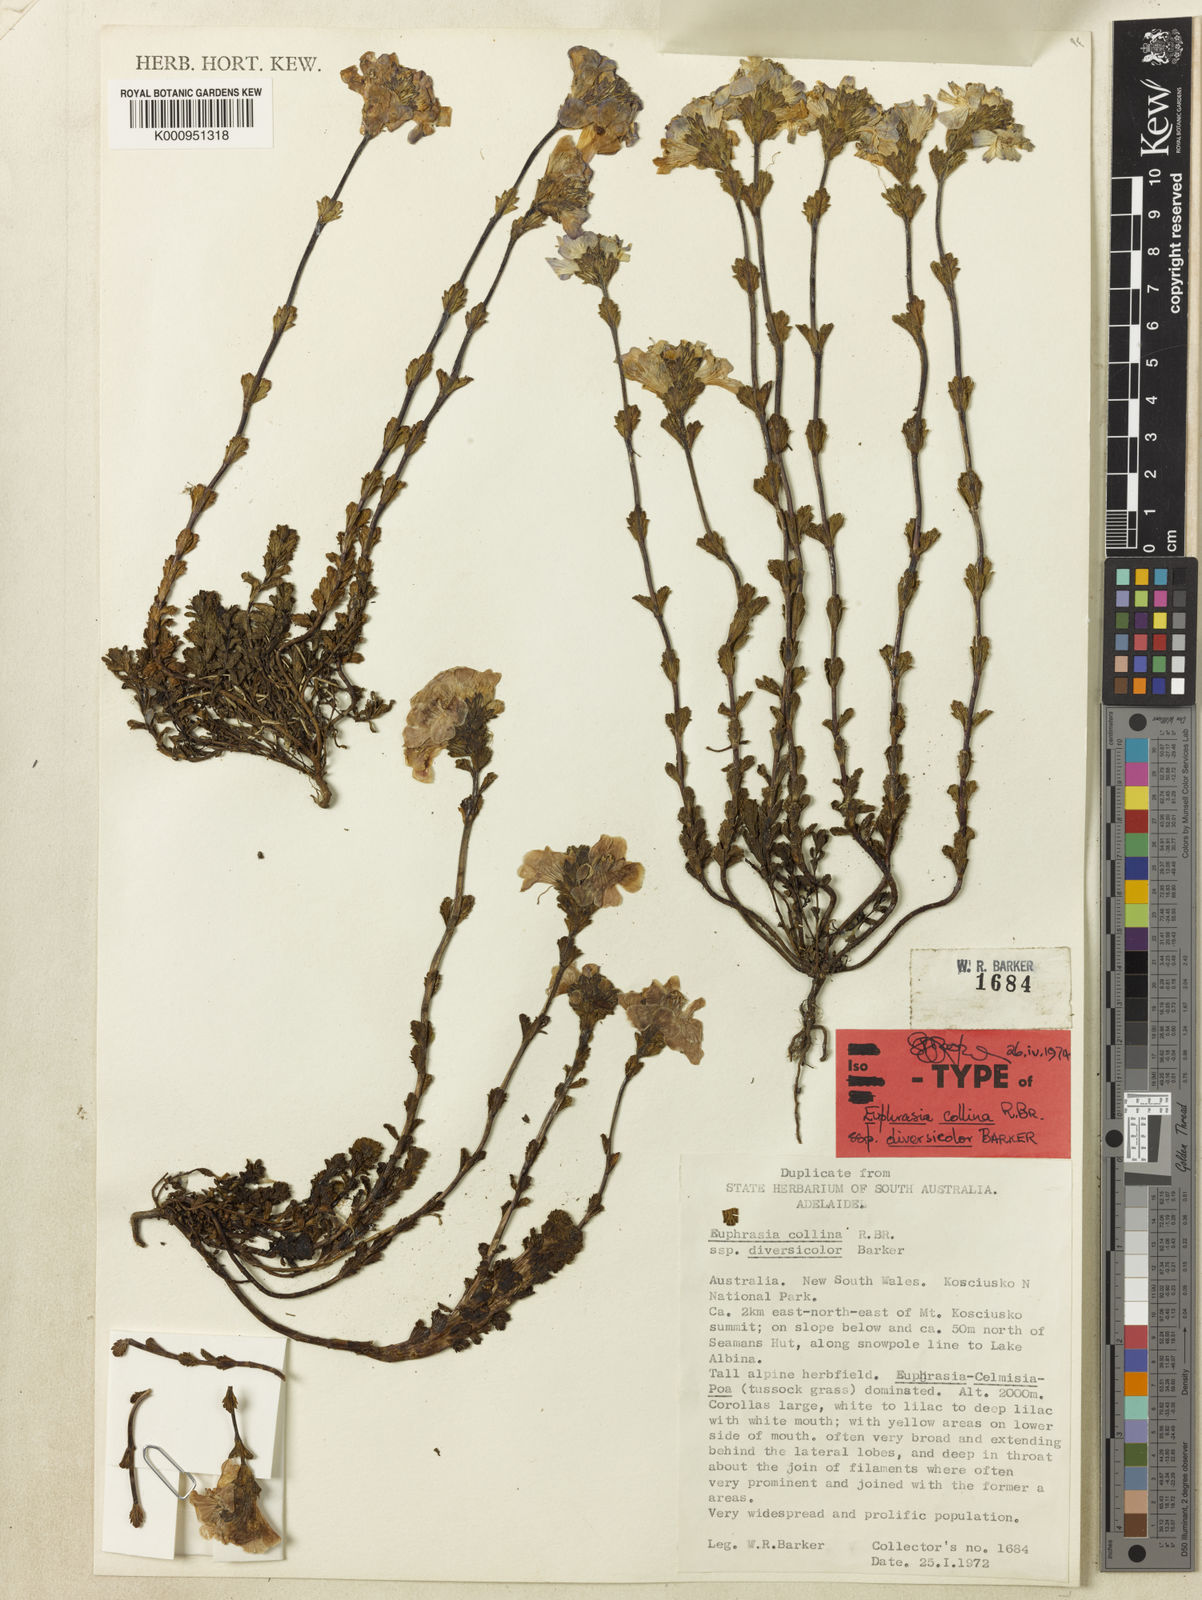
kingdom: Plantae
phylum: Tracheophyta
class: Magnoliopsida
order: Lamiales
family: Orobanchaceae
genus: Euphrasia
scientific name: Euphrasia collina
